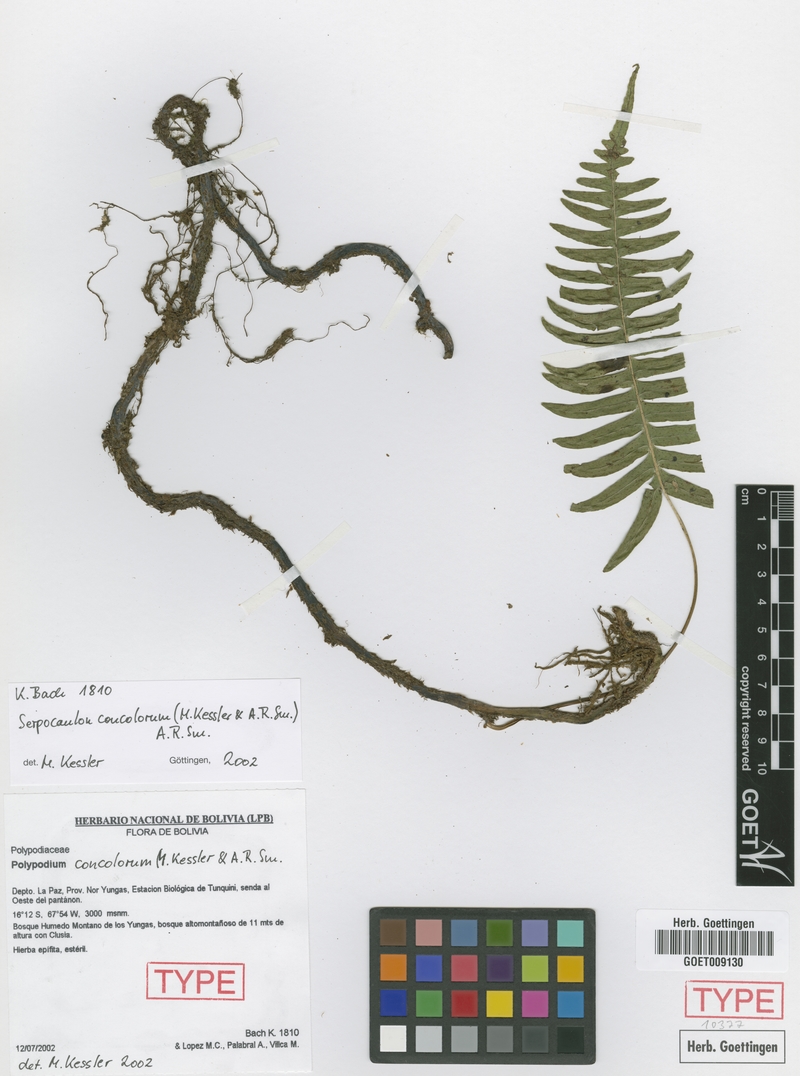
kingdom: Plantae
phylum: Tracheophyta
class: Polypodiopsida
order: Polypodiales
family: Polypodiaceae
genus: Serpocaulon
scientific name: Serpocaulon concolorum
